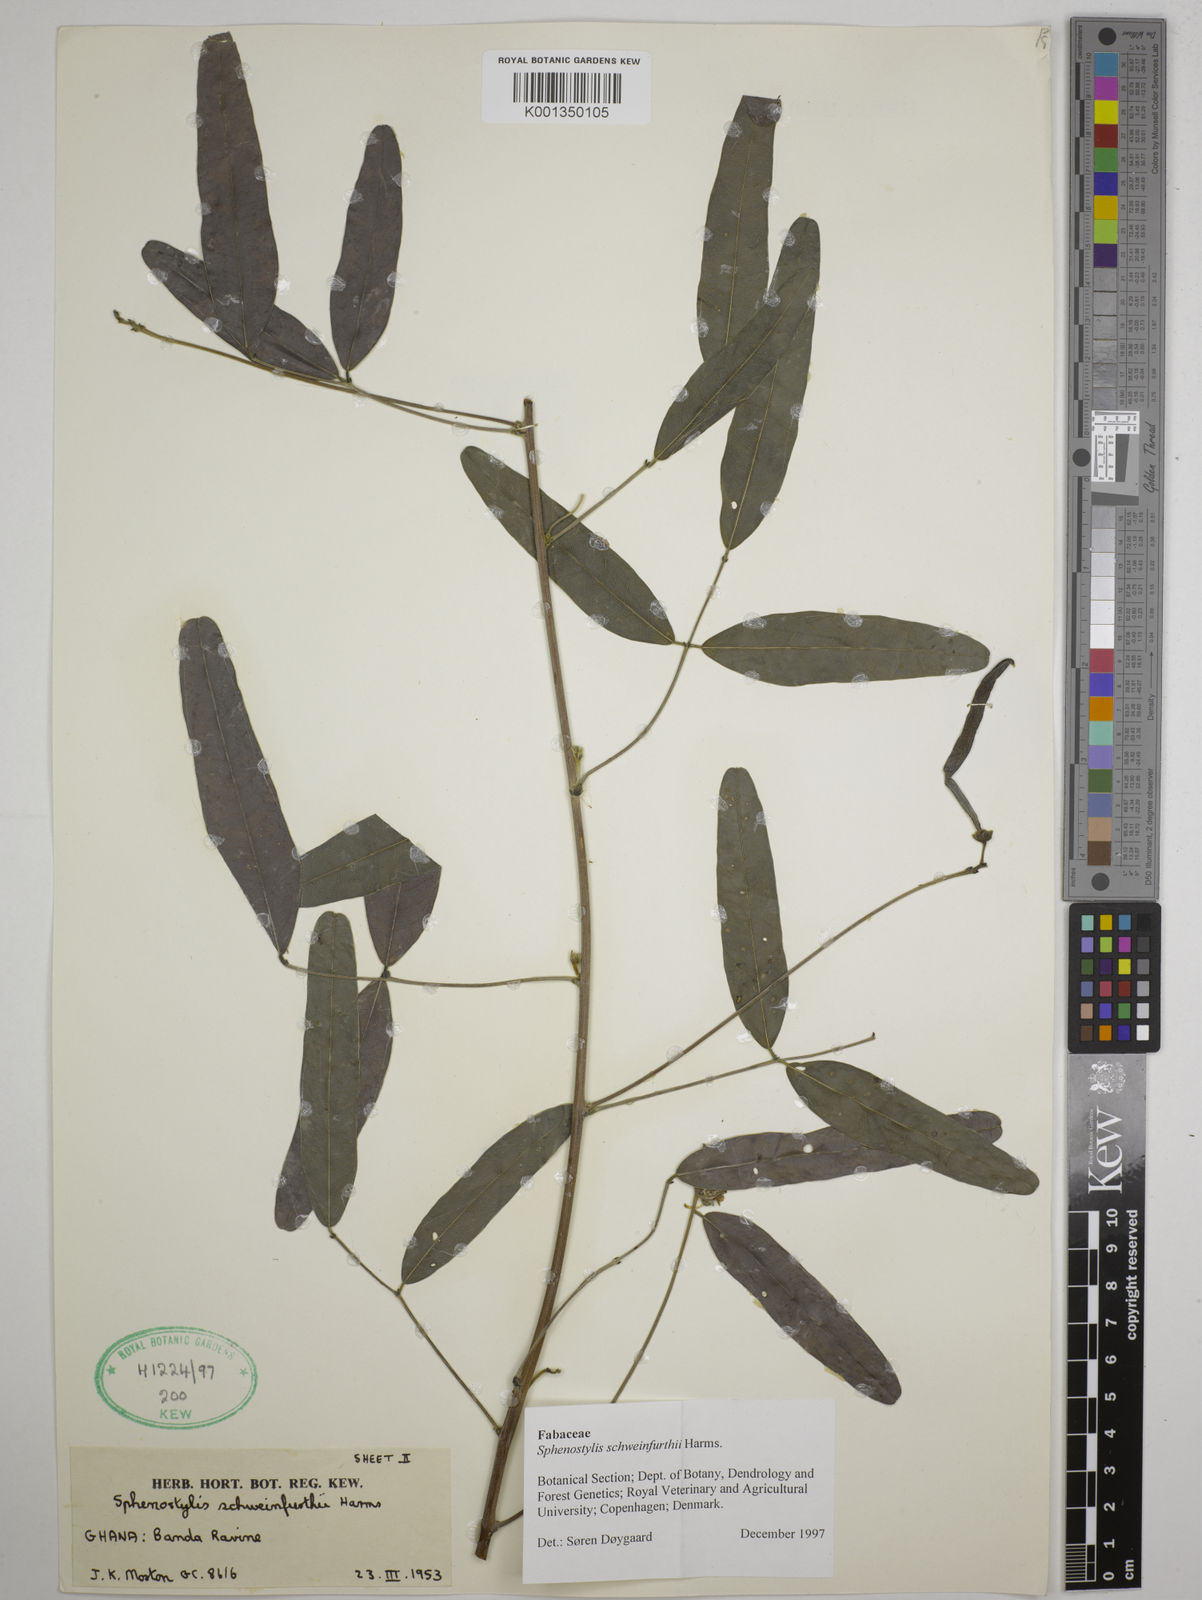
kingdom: Plantae
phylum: Tracheophyta
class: Magnoliopsida
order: Fabales
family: Fabaceae
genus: Sphenostylis
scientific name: Sphenostylis schweinfurthii
